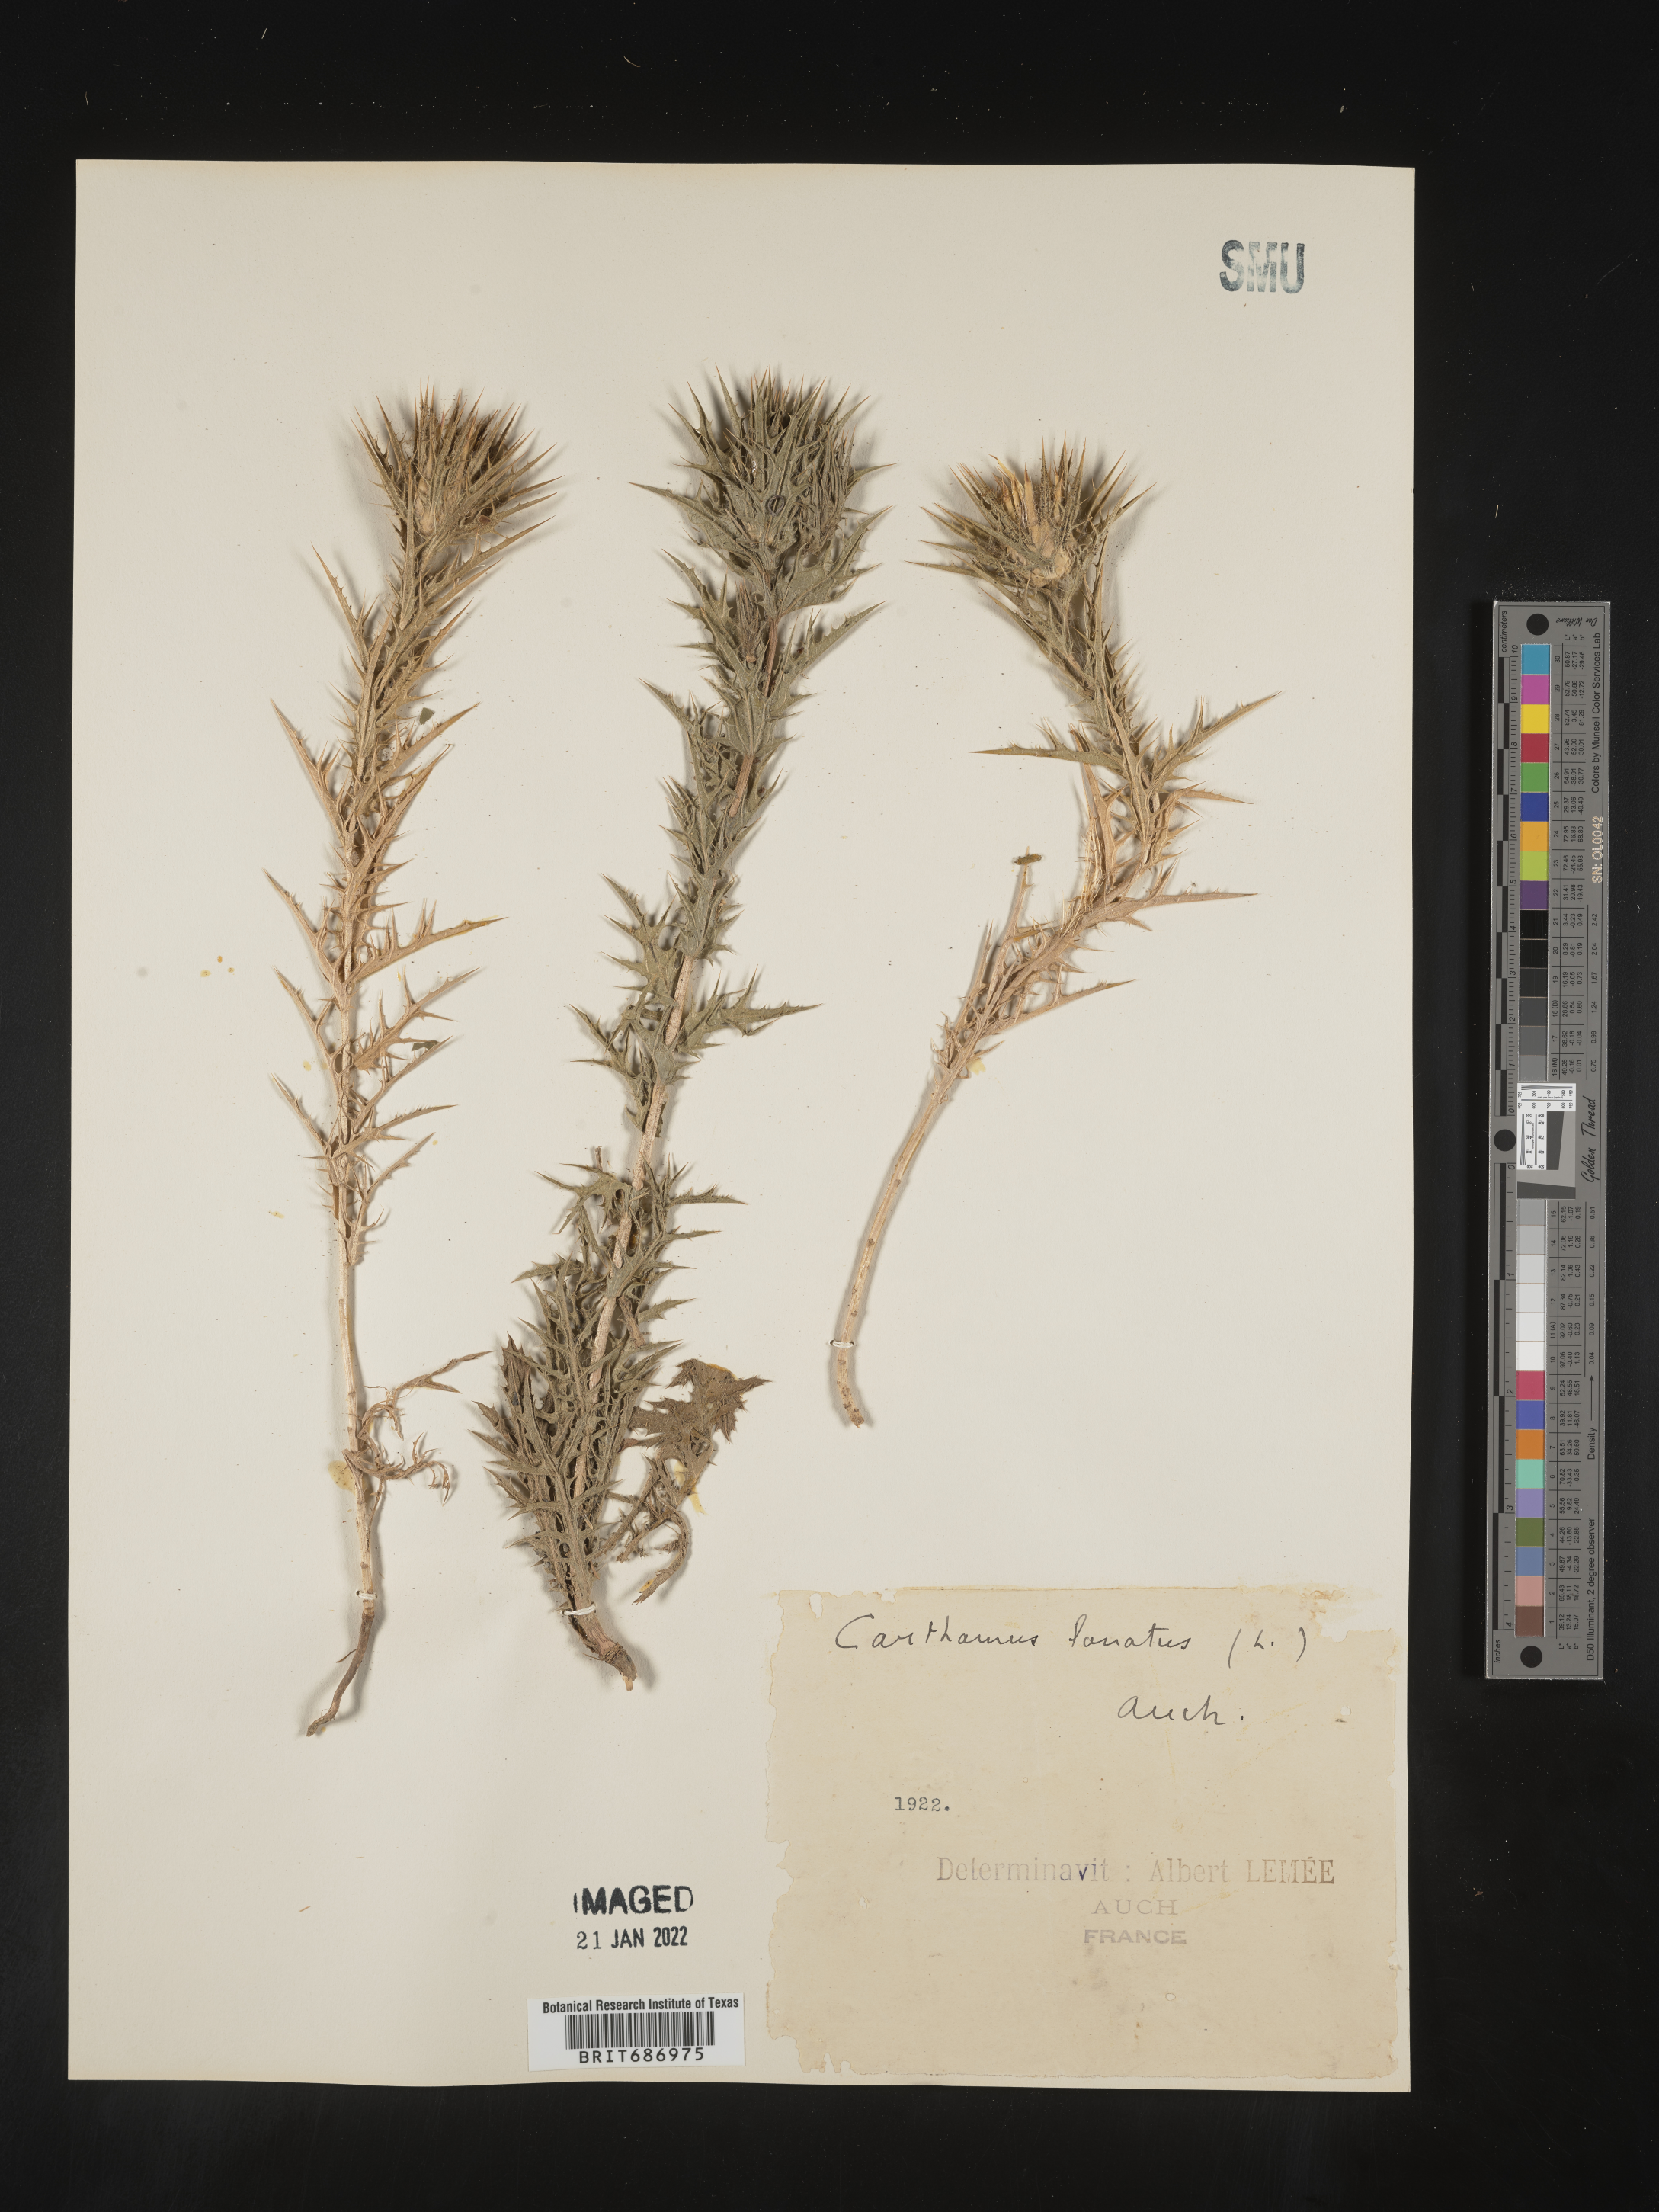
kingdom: Plantae
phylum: Tracheophyta
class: Magnoliopsida
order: Asterales
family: Asteraceae
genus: Carthamus
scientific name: Carthamus
